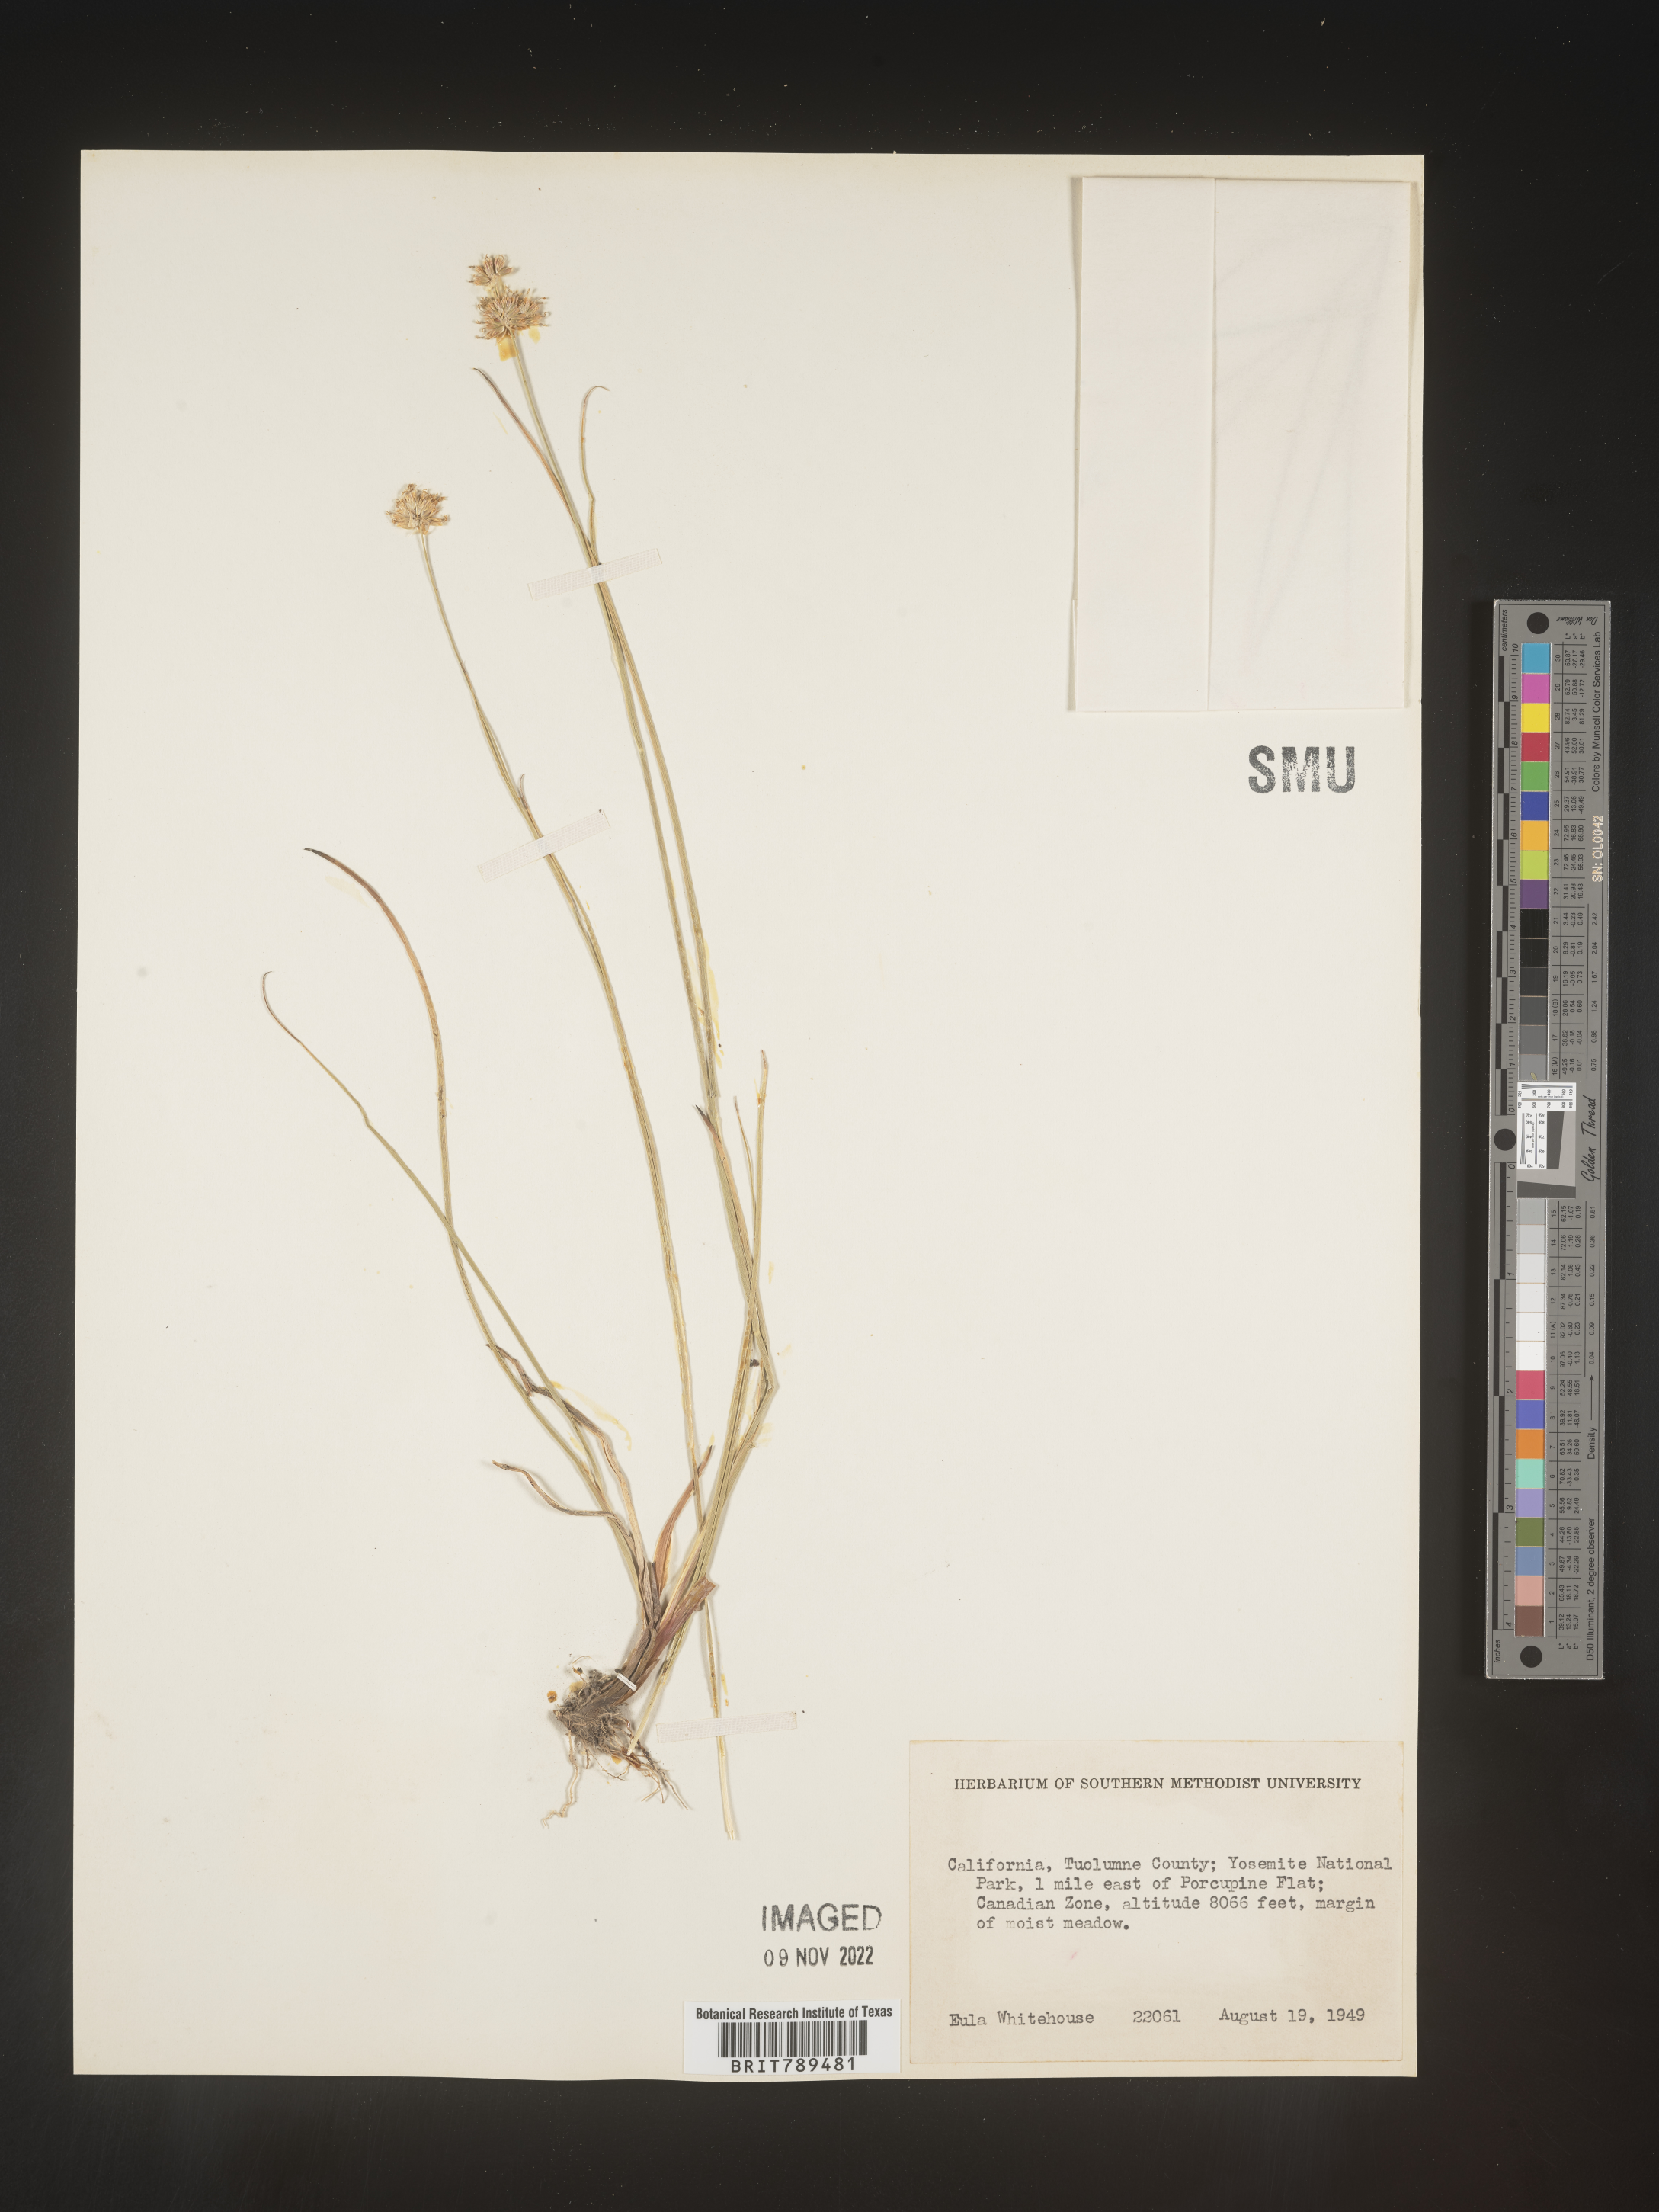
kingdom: Plantae
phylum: Tracheophyta
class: Magnoliopsida
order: Caryophyllales
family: Caryophyllaceae
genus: Arenaria
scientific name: Arenaria
